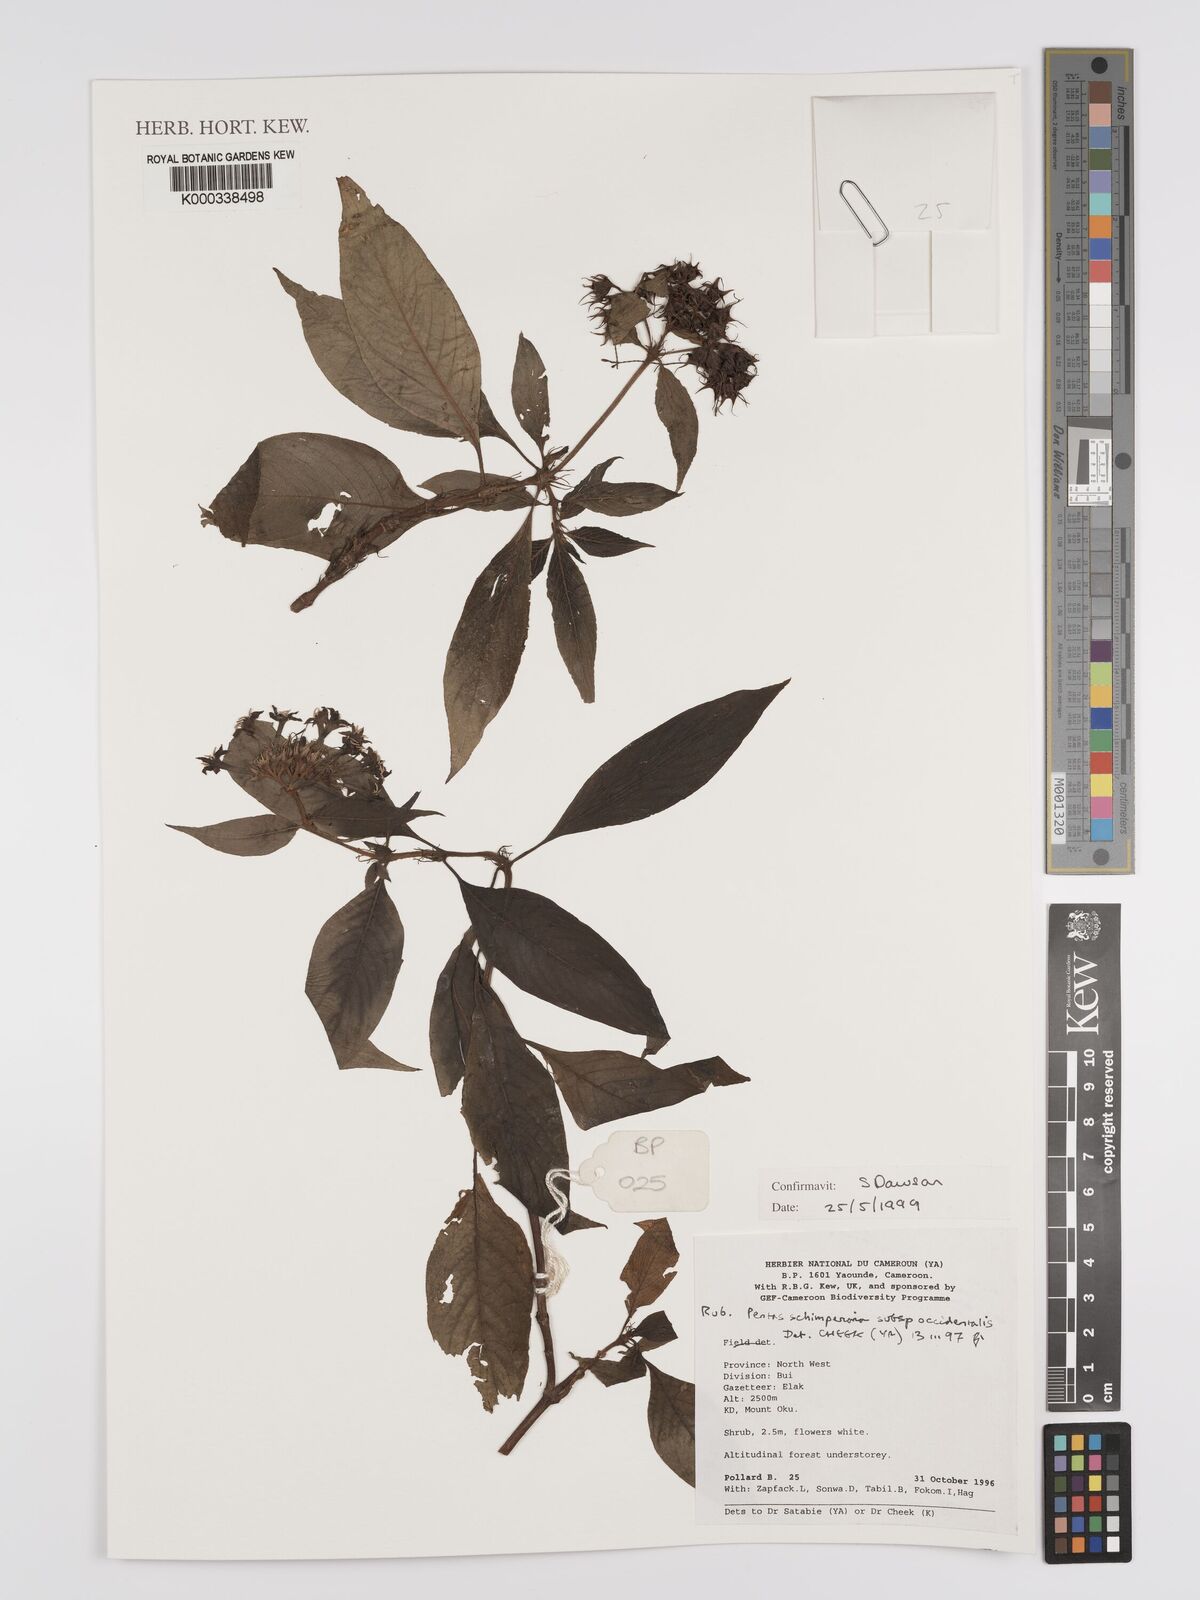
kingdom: Plantae
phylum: Tracheophyta
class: Magnoliopsida
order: Gentianales
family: Rubiaceae
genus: Phyllopentas
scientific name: Phyllopentas schimperi
